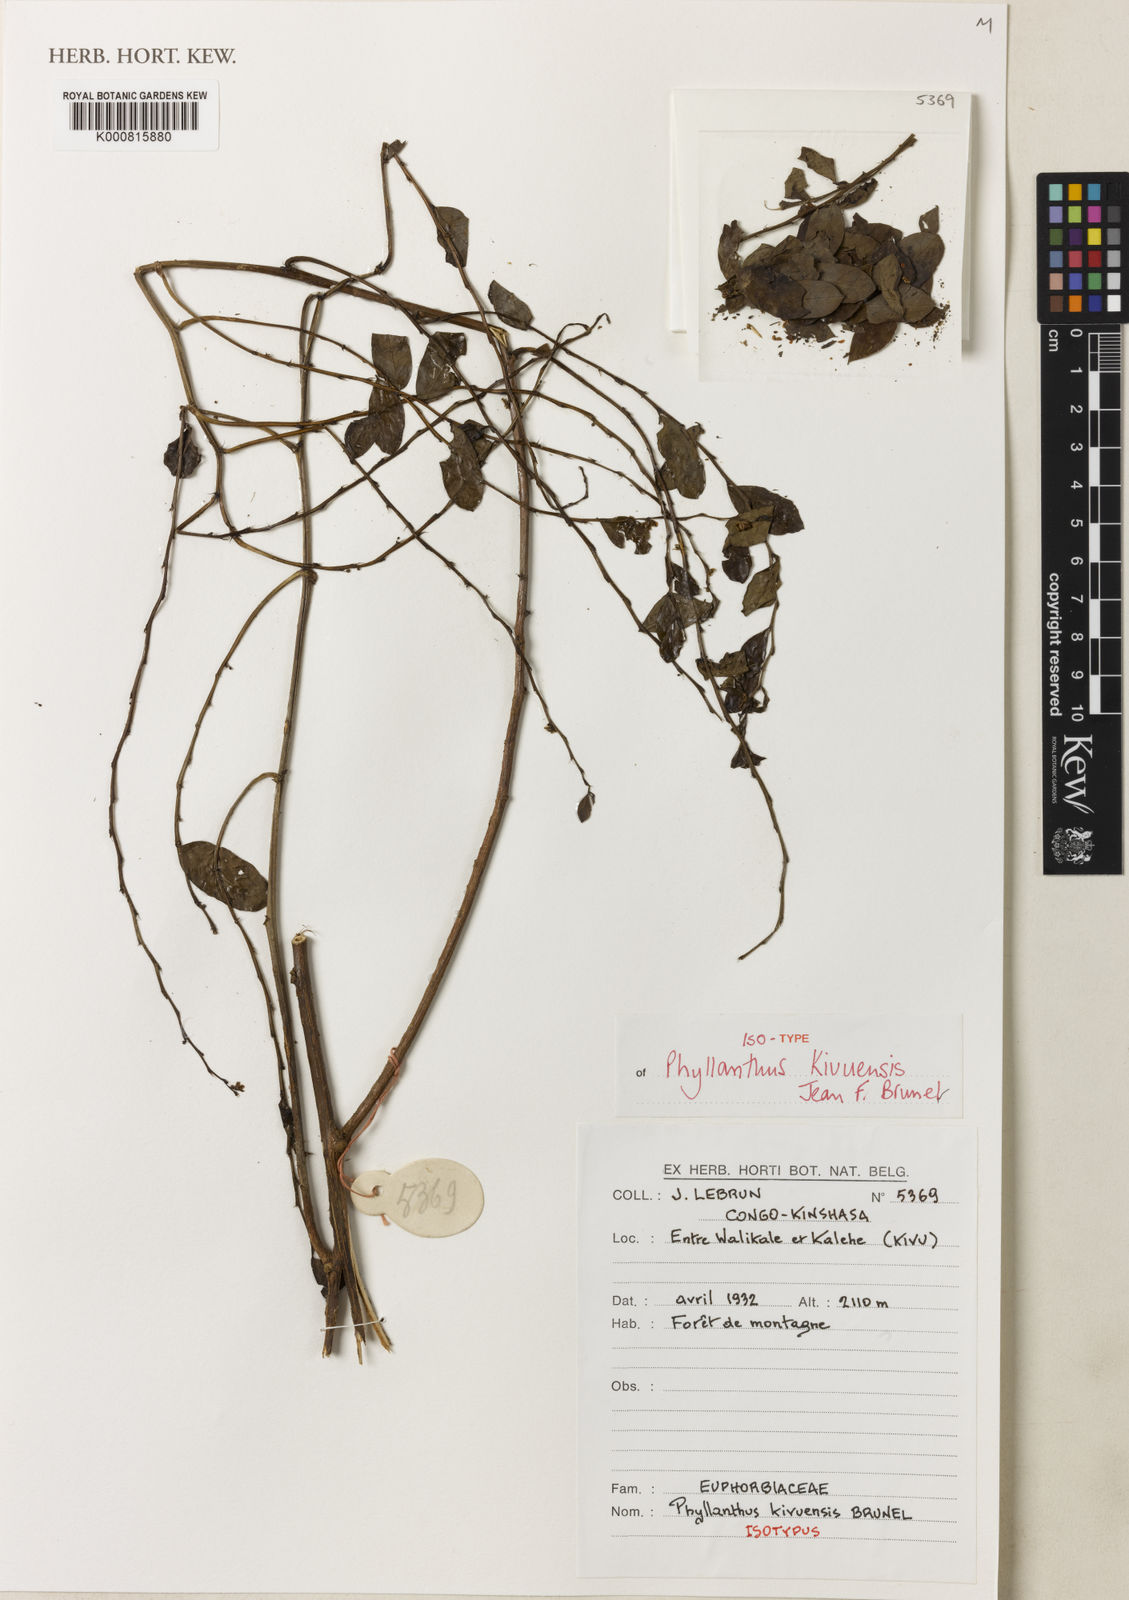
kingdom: Plantae
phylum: Tracheophyta
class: Magnoliopsida
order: Malpighiales
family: Phyllanthaceae
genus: Phyllanthus
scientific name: Phyllanthus gagnioevae
